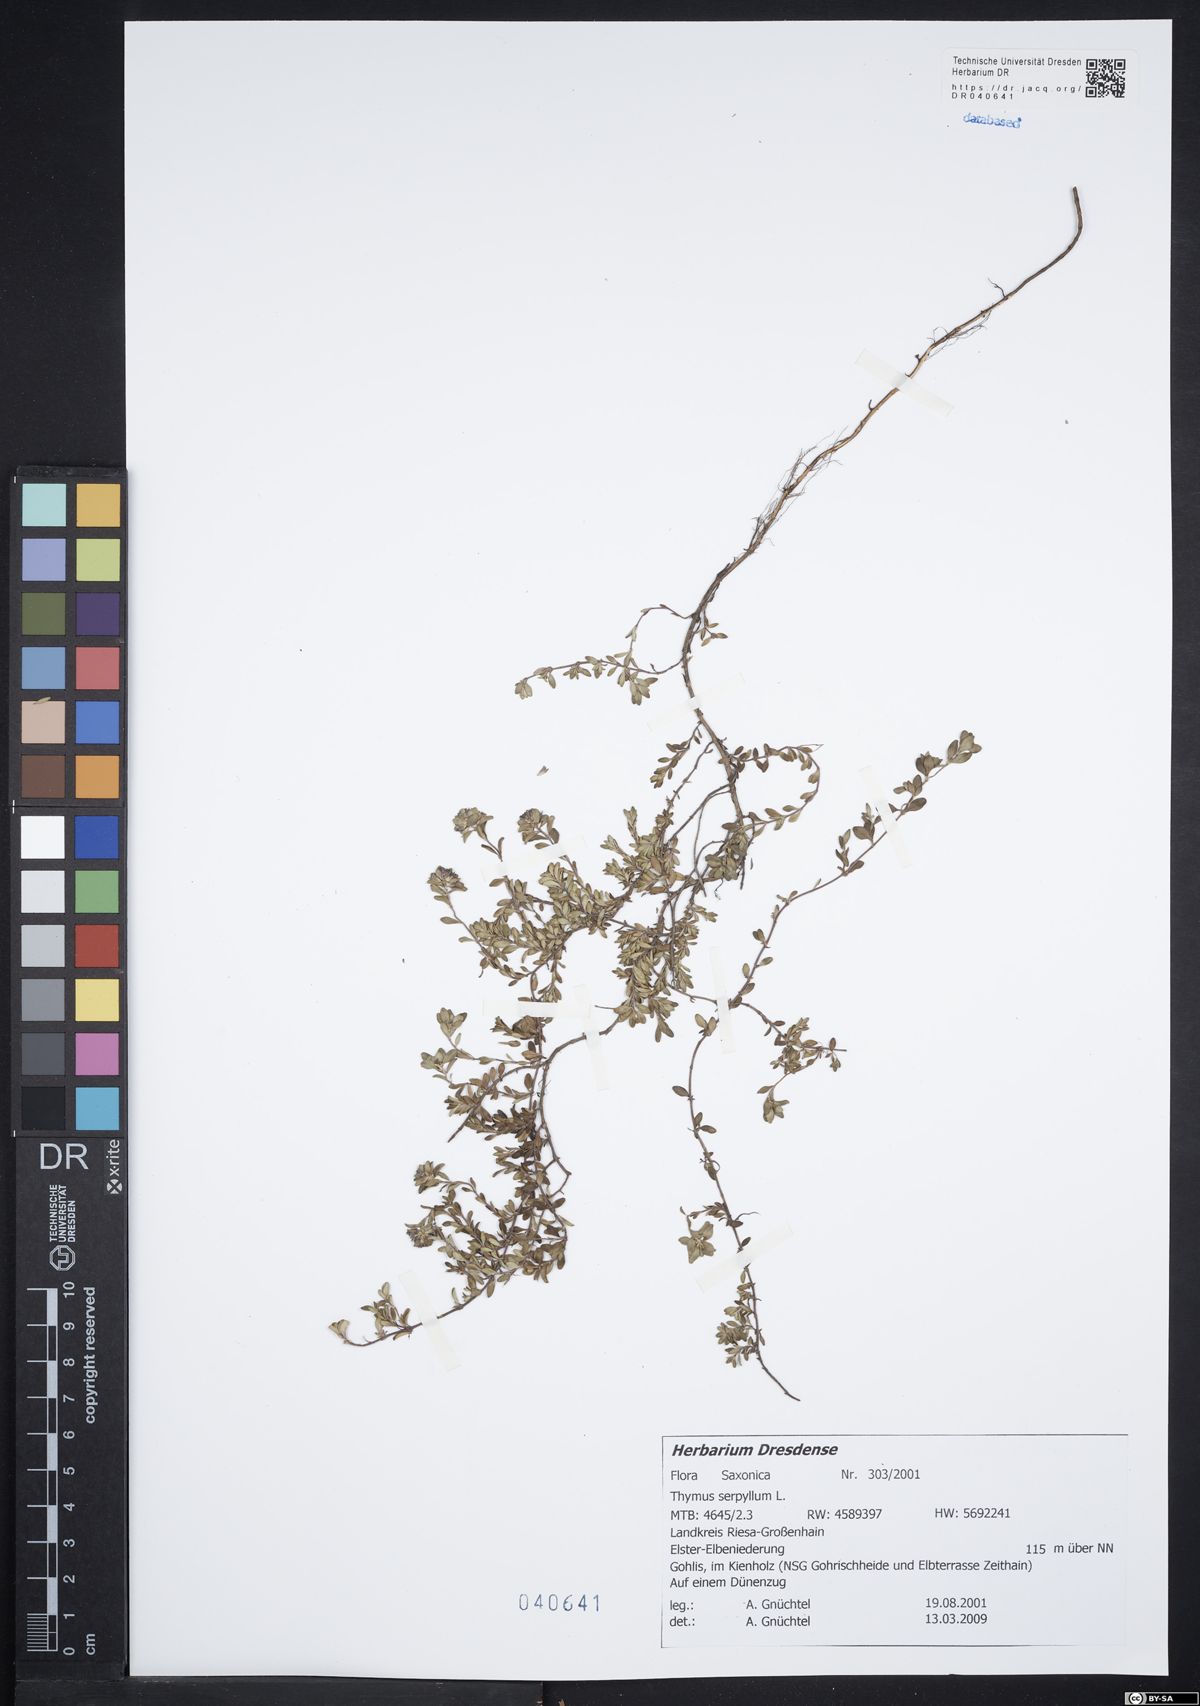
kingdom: Plantae
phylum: Tracheophyta
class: Magnoliopsida
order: Lamiales
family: Lamiaceae
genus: Thymus
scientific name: Thymus serpyllum
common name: Breckland thyme
